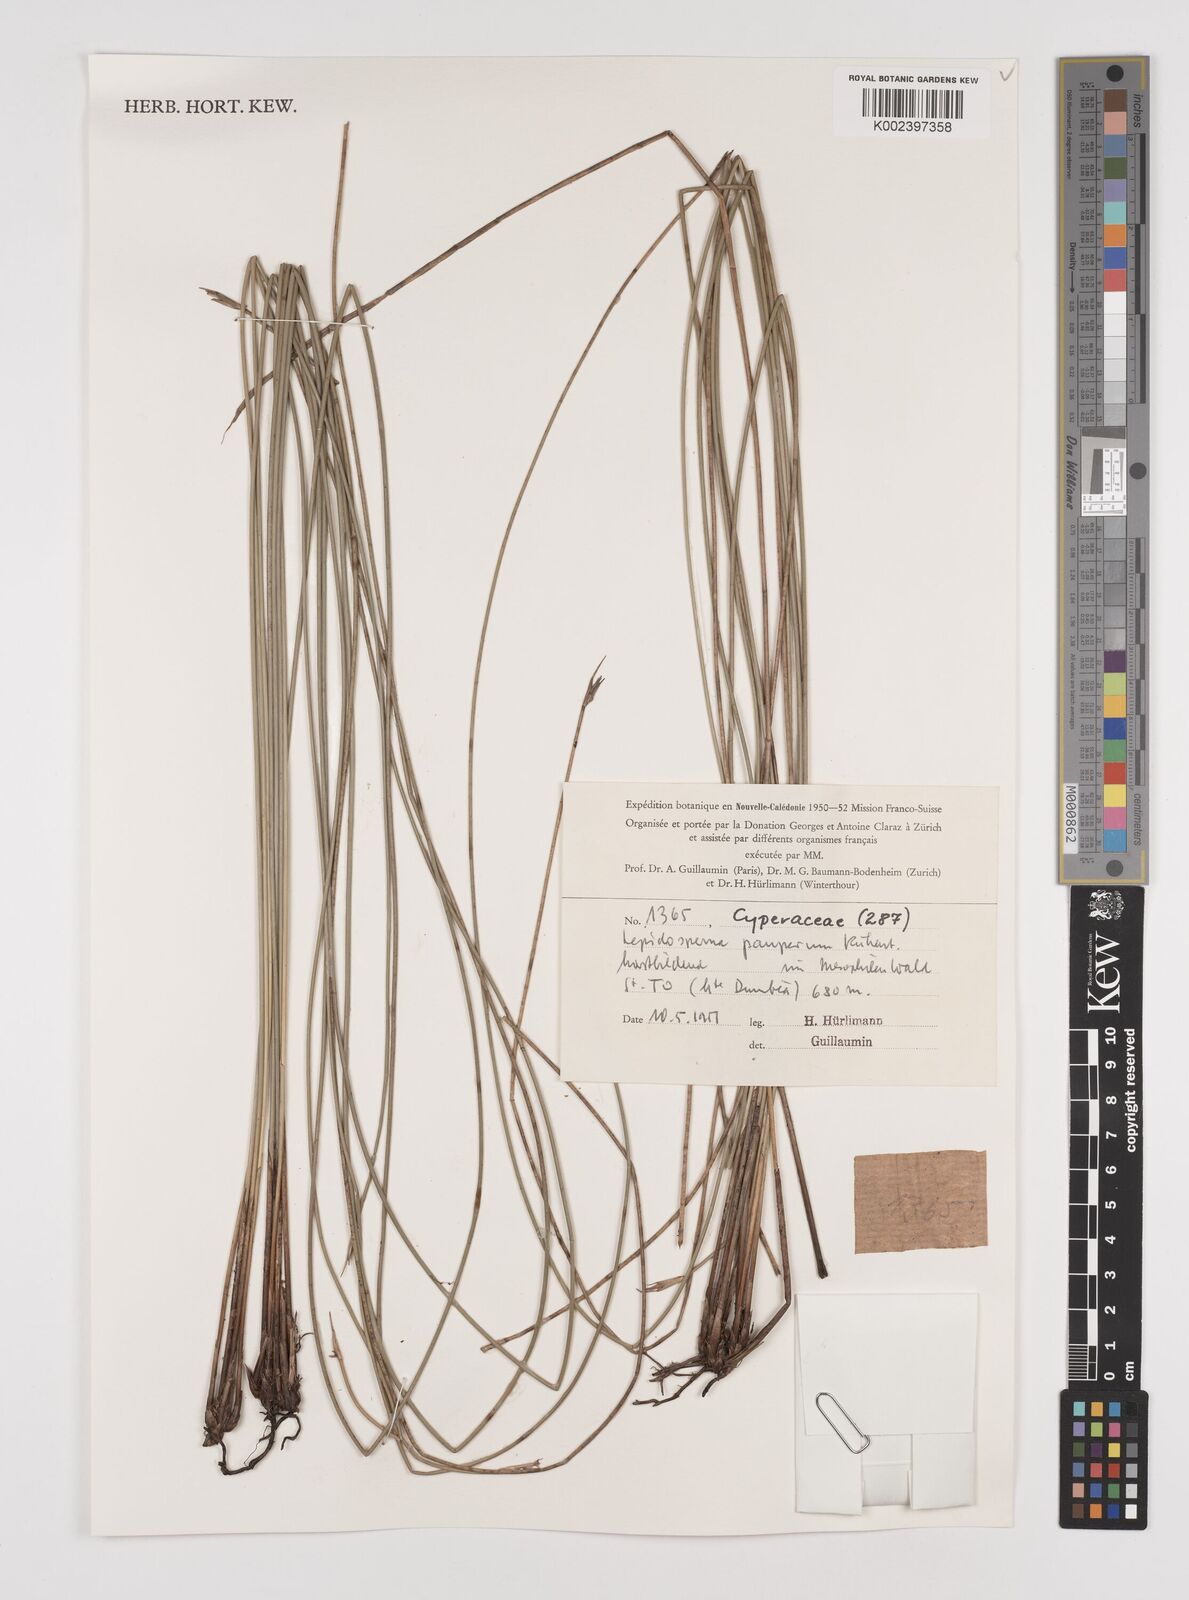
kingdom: Plantae
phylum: Tracheophyta
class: Liliopsida
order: Poales
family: Cyperaceae
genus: Lepidosperma
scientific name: Lepidosperma pauperum
